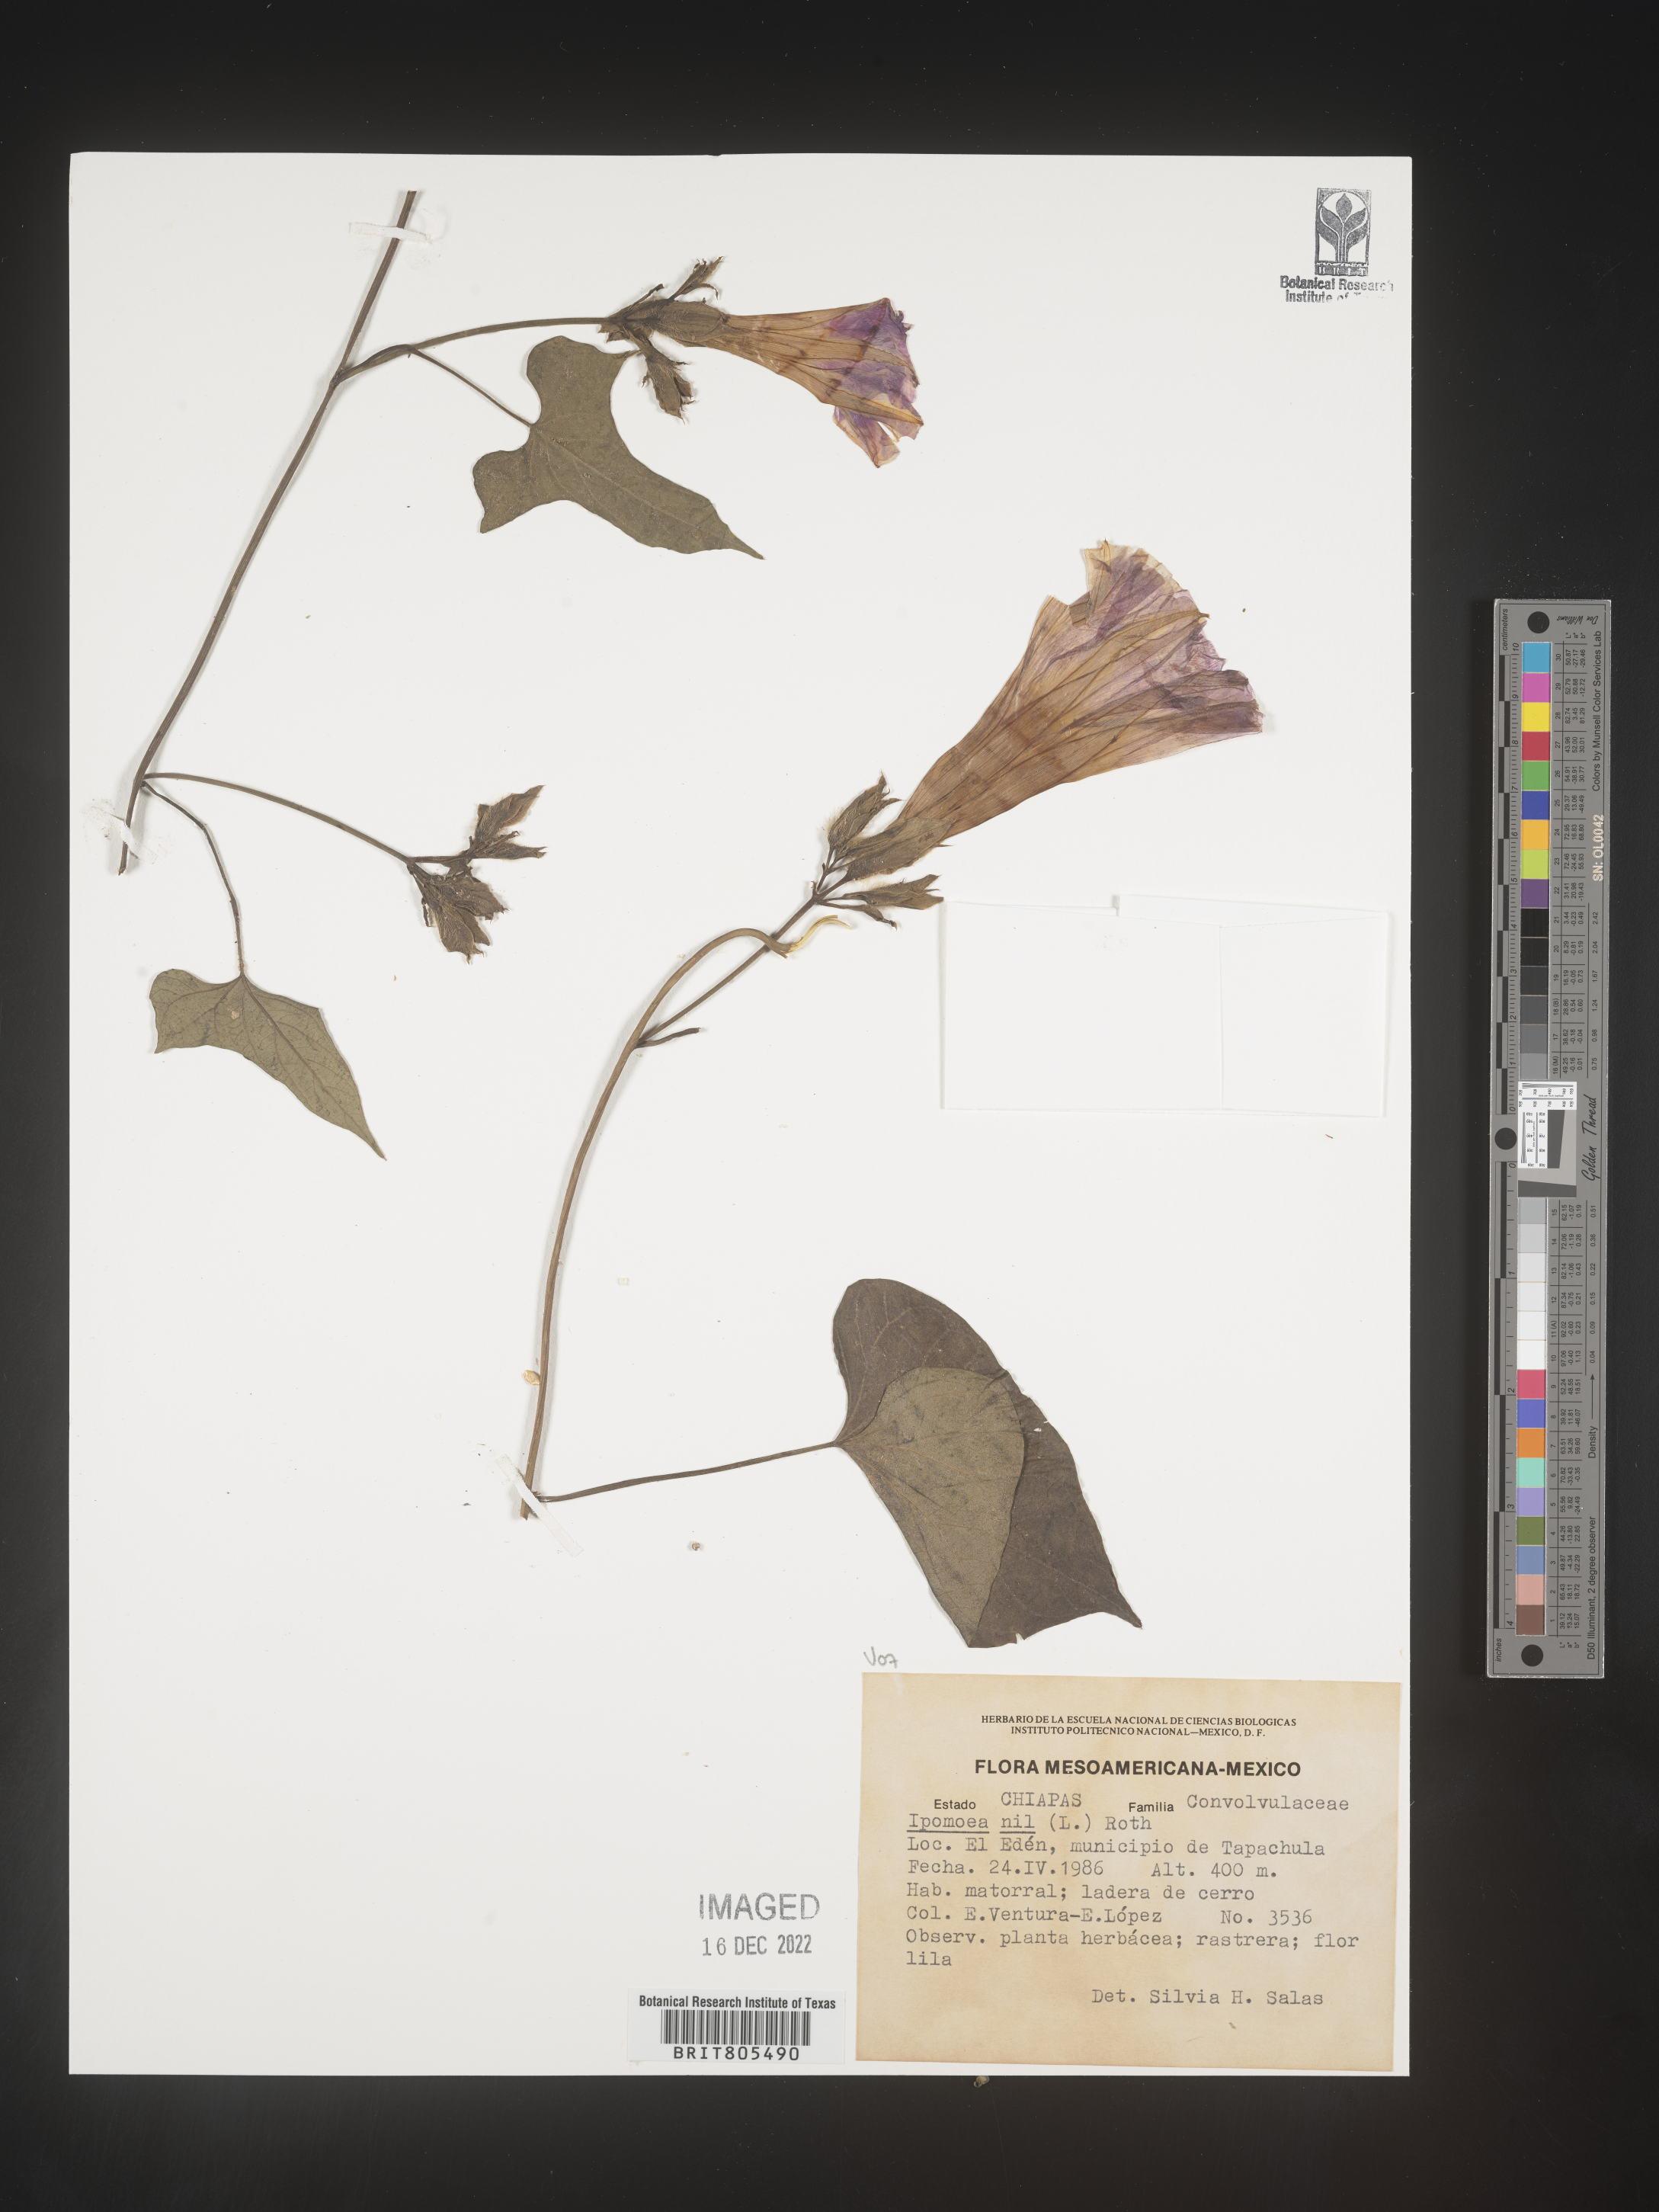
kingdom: Plantae
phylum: Tracheophyta
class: Magnoliopsida
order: Solanales
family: Convolvulaceae
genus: Ipomoea
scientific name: Ipomoea
